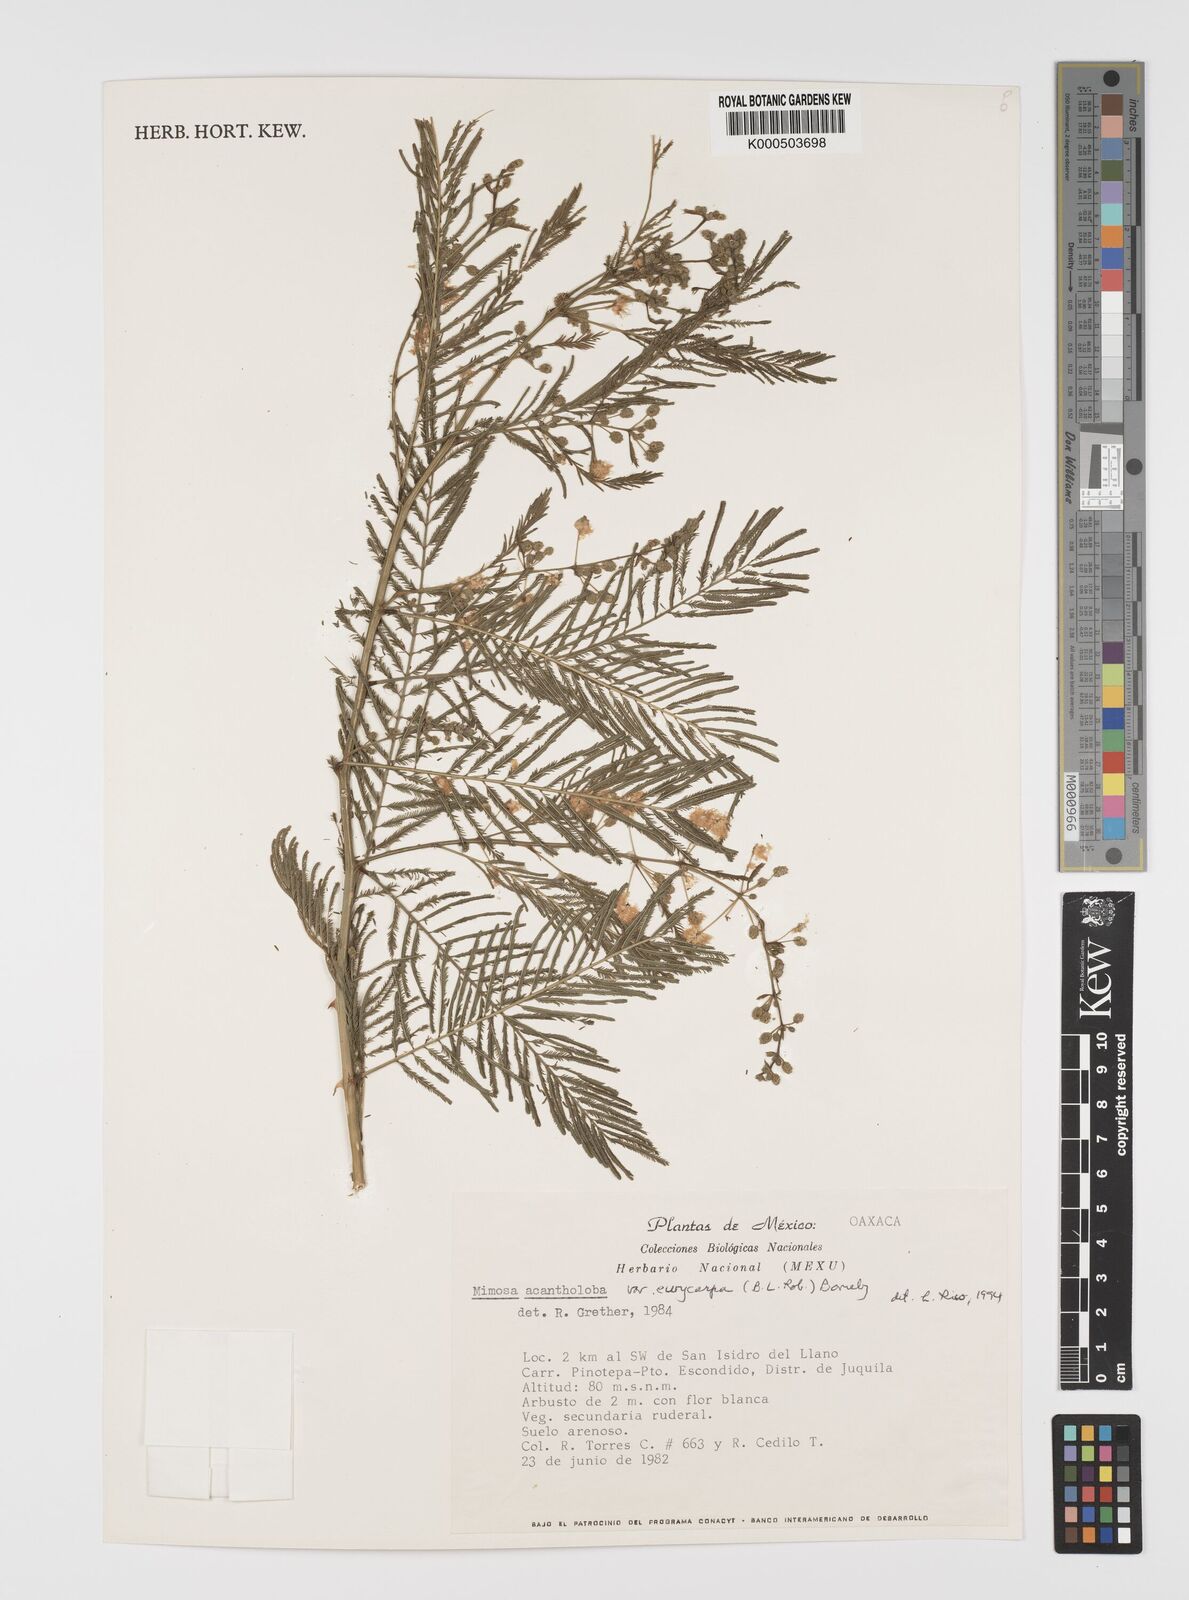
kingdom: Plantae
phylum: Tracheophyta
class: Magnoliopsida
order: Fabales
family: Fabaceae
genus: Mimosa
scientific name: Mimosa acantholoba
